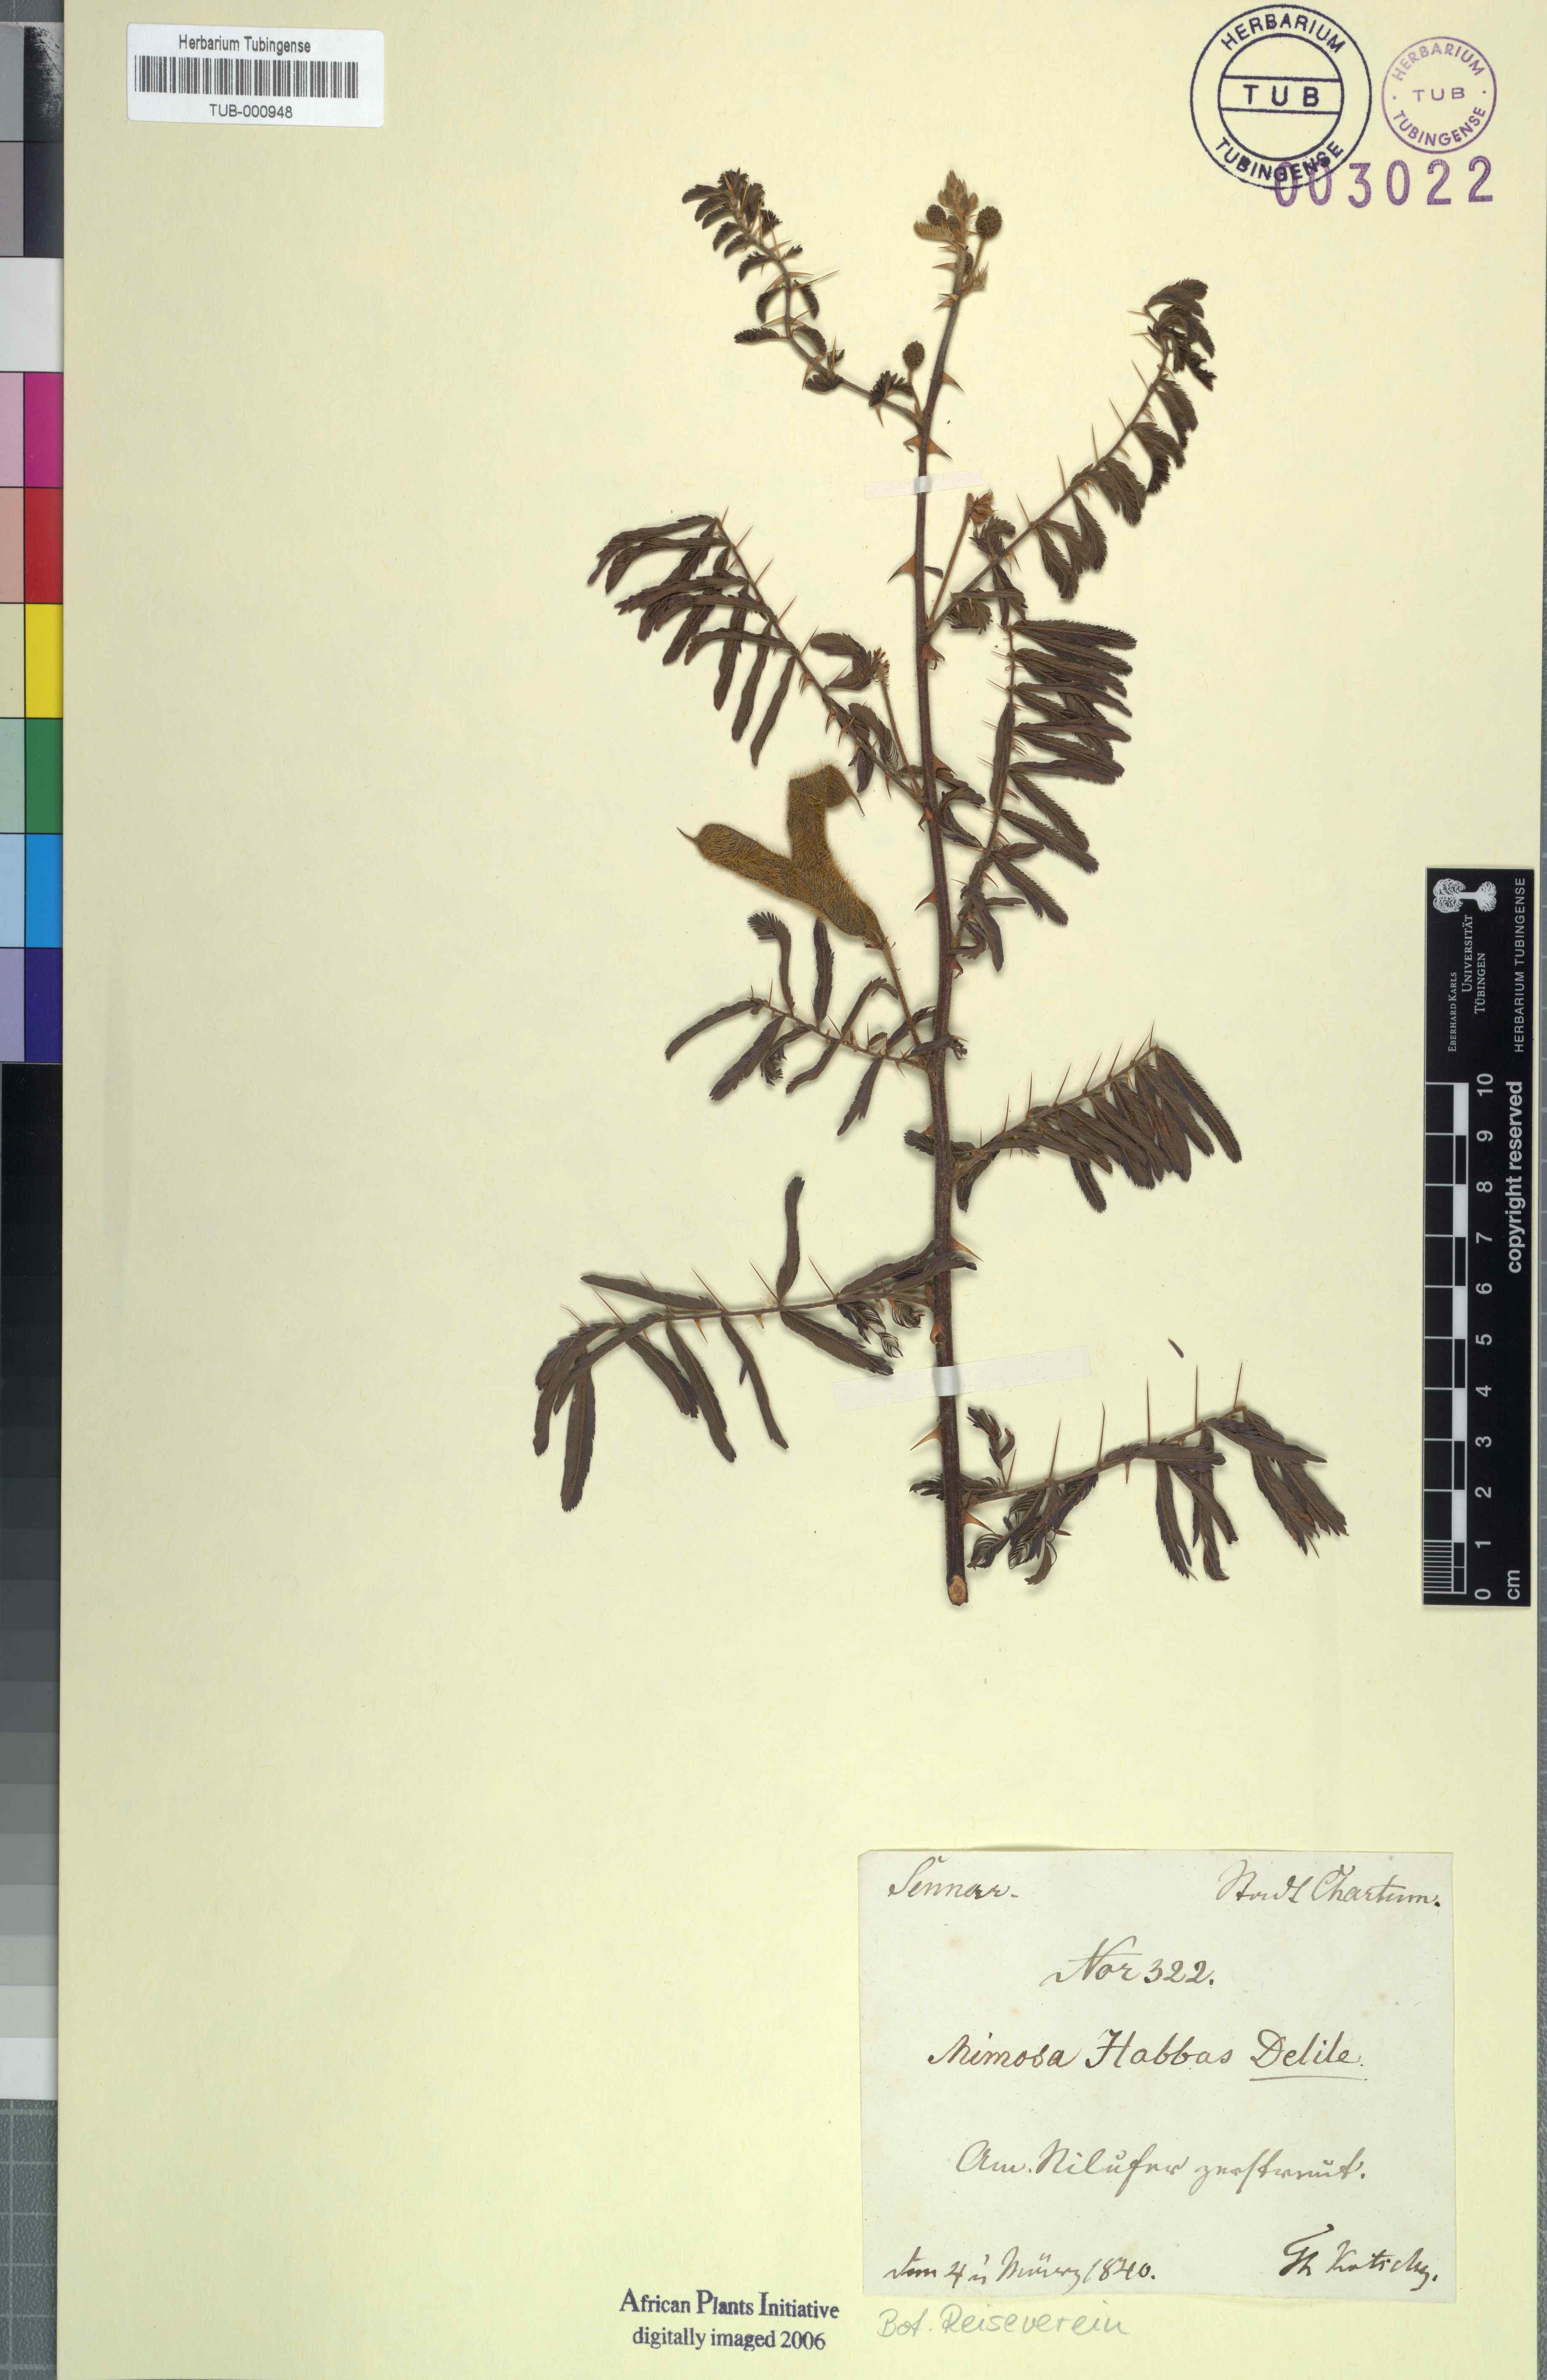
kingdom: Plantae
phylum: Tracheophyta
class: Magnoliopsida
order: Fabales
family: Fabaceae
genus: Mimosa
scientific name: Mimosa asperata
